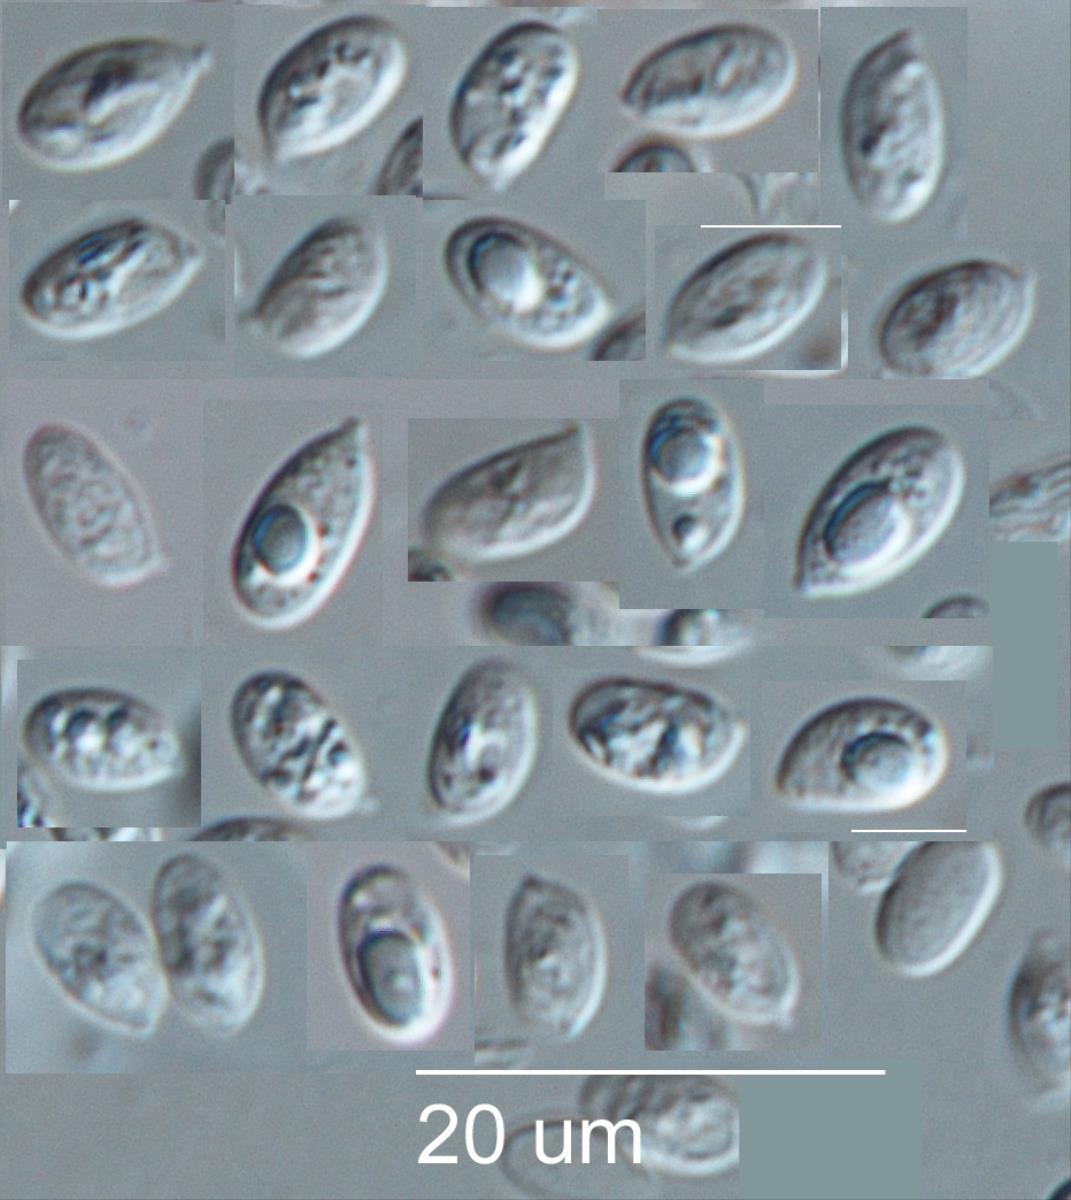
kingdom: Fungi
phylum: Basidiomycota
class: Agaricomycetes
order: Agaricales
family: Mycenaceae
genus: Mycena
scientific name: Mycena podocarpi
